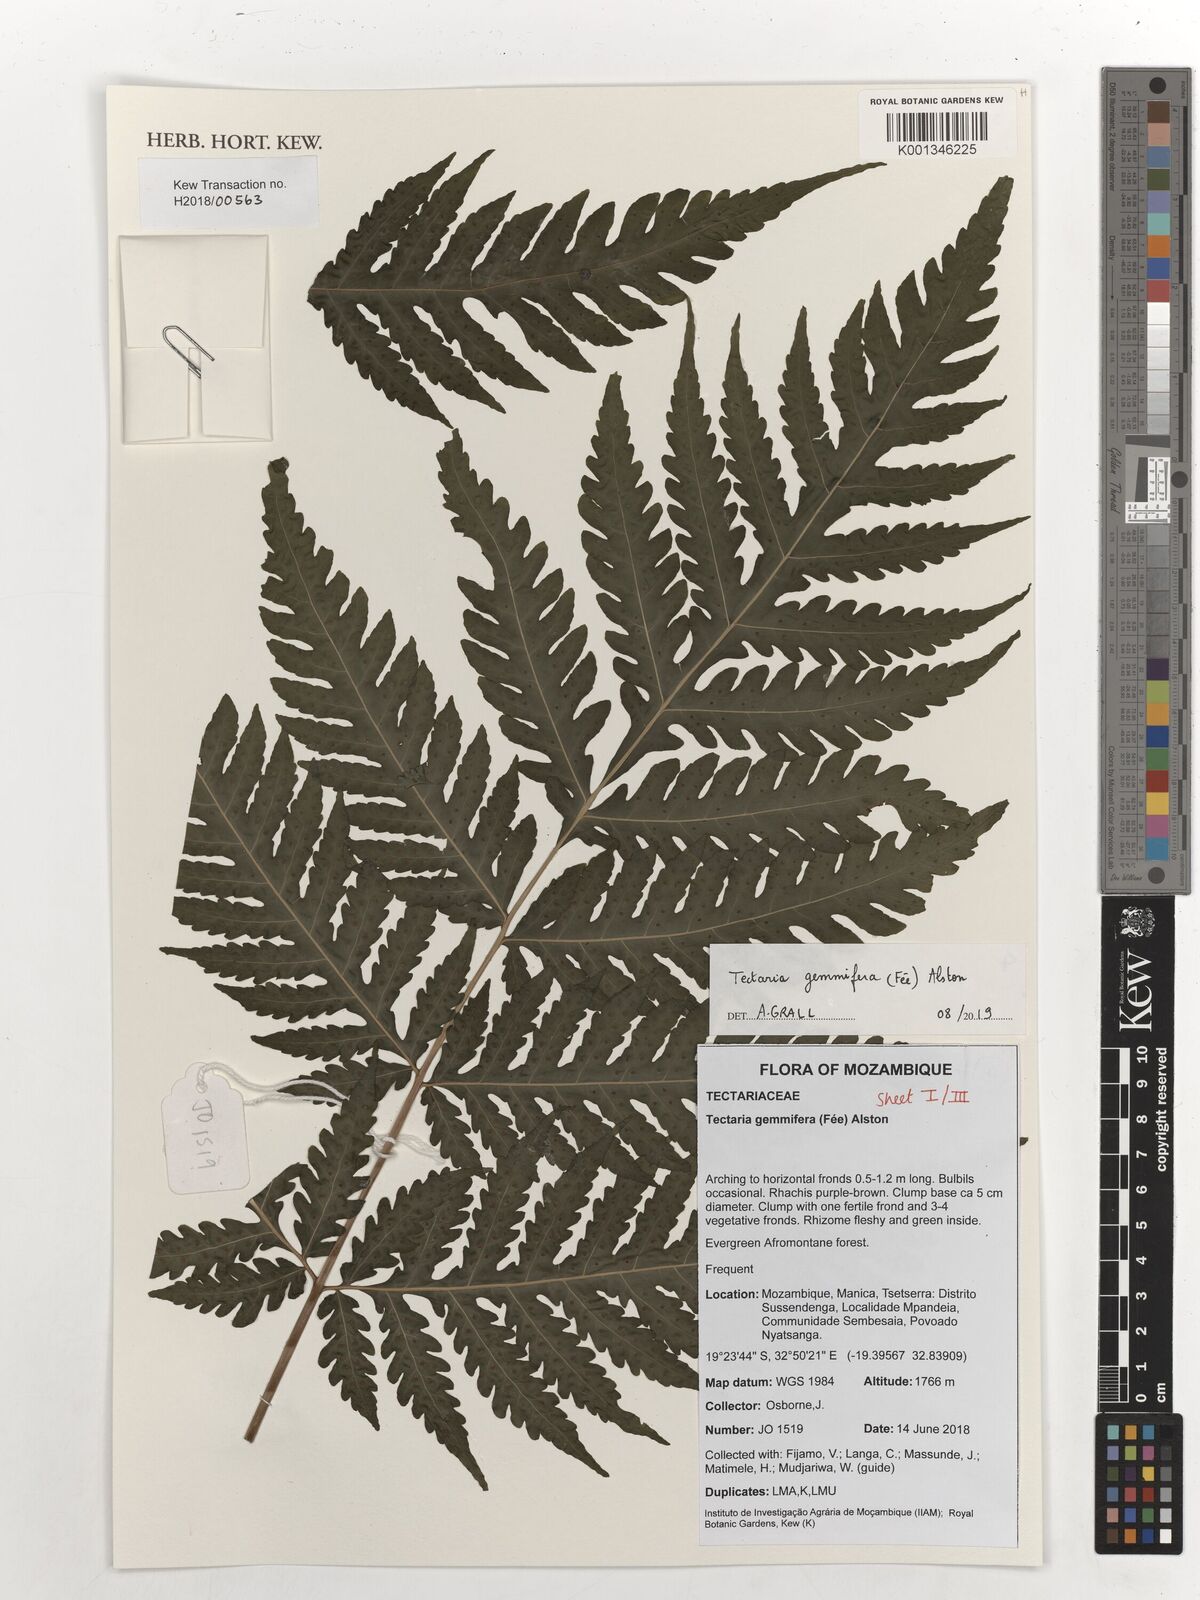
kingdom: Plantae
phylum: Tracheophyta
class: Polypodiopsida
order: Polypodiales
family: Tectariaceae
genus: Tectaria
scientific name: Tectaria gemmifera
